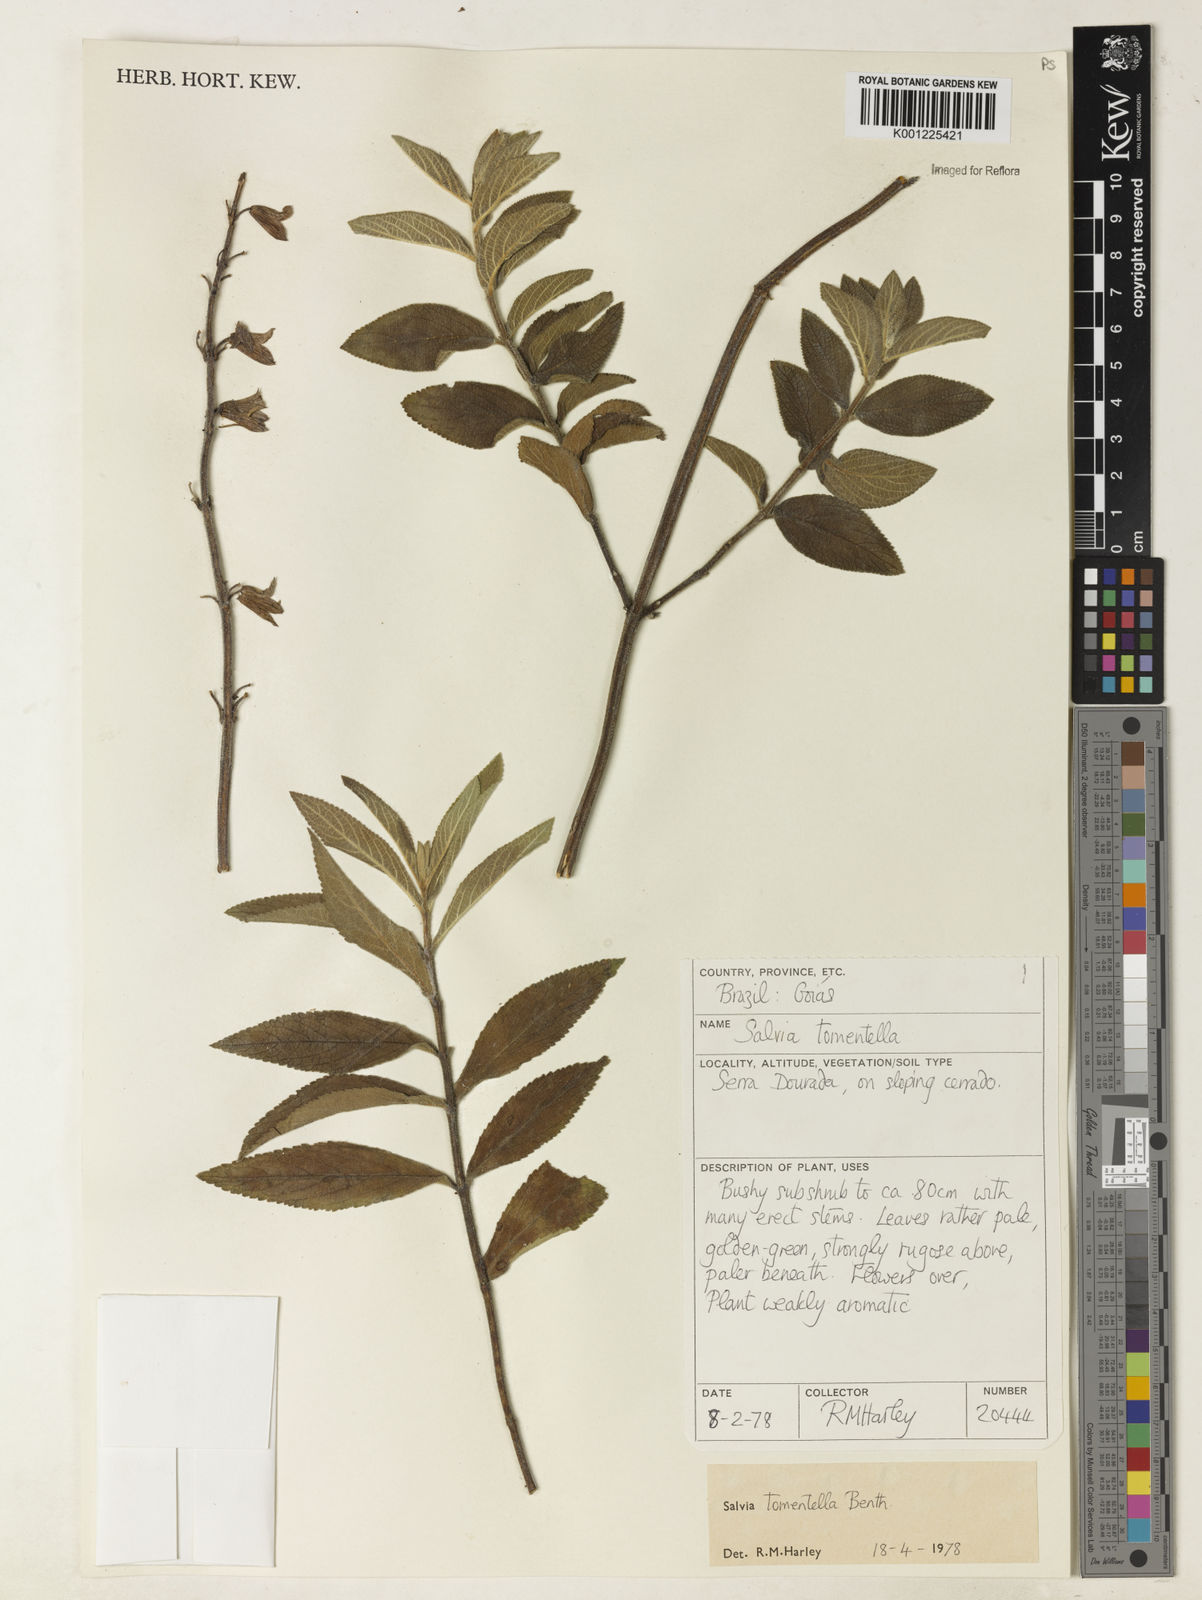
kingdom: Plantae
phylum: Tracheophyta
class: Magnoliopsida
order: Lamiales
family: Lamiaceae
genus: Salvia
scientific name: Salvia tomentella
